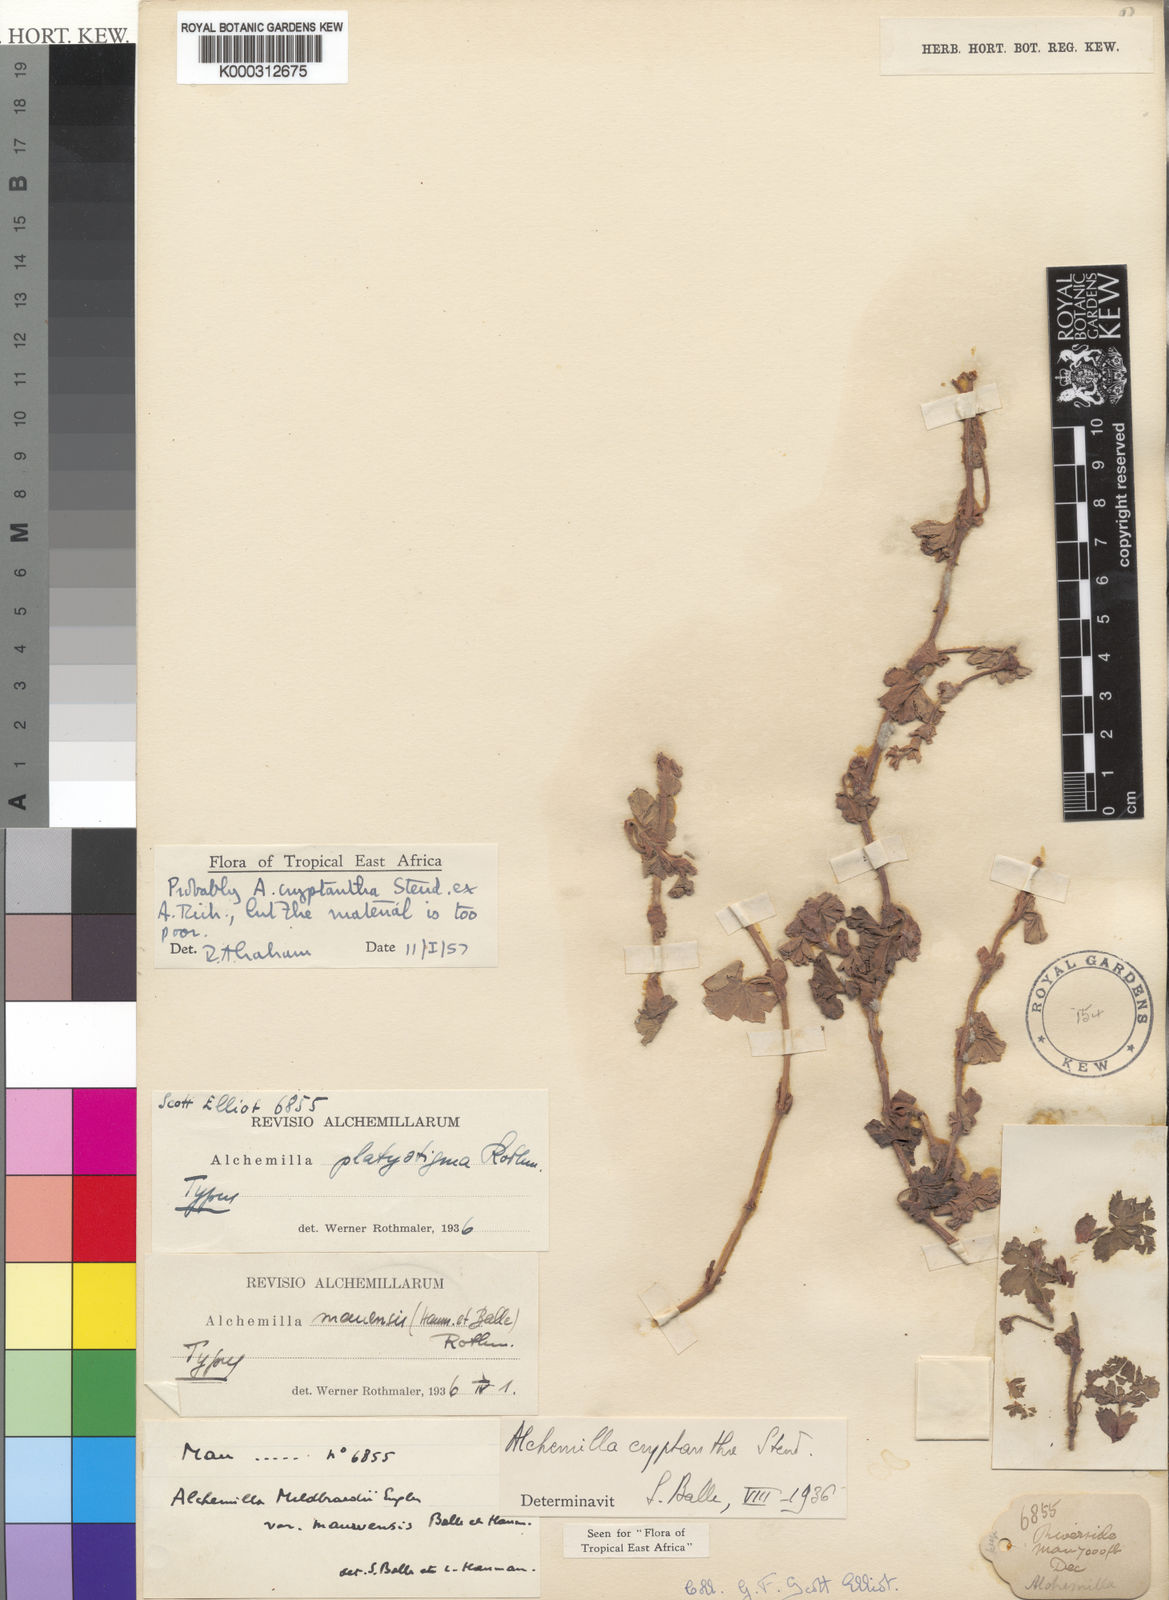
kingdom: Plantae
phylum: Tracheophyta
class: Magnoliopsida
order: Rosales
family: Rosaceae
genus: Alchemilla
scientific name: Alchemilla
